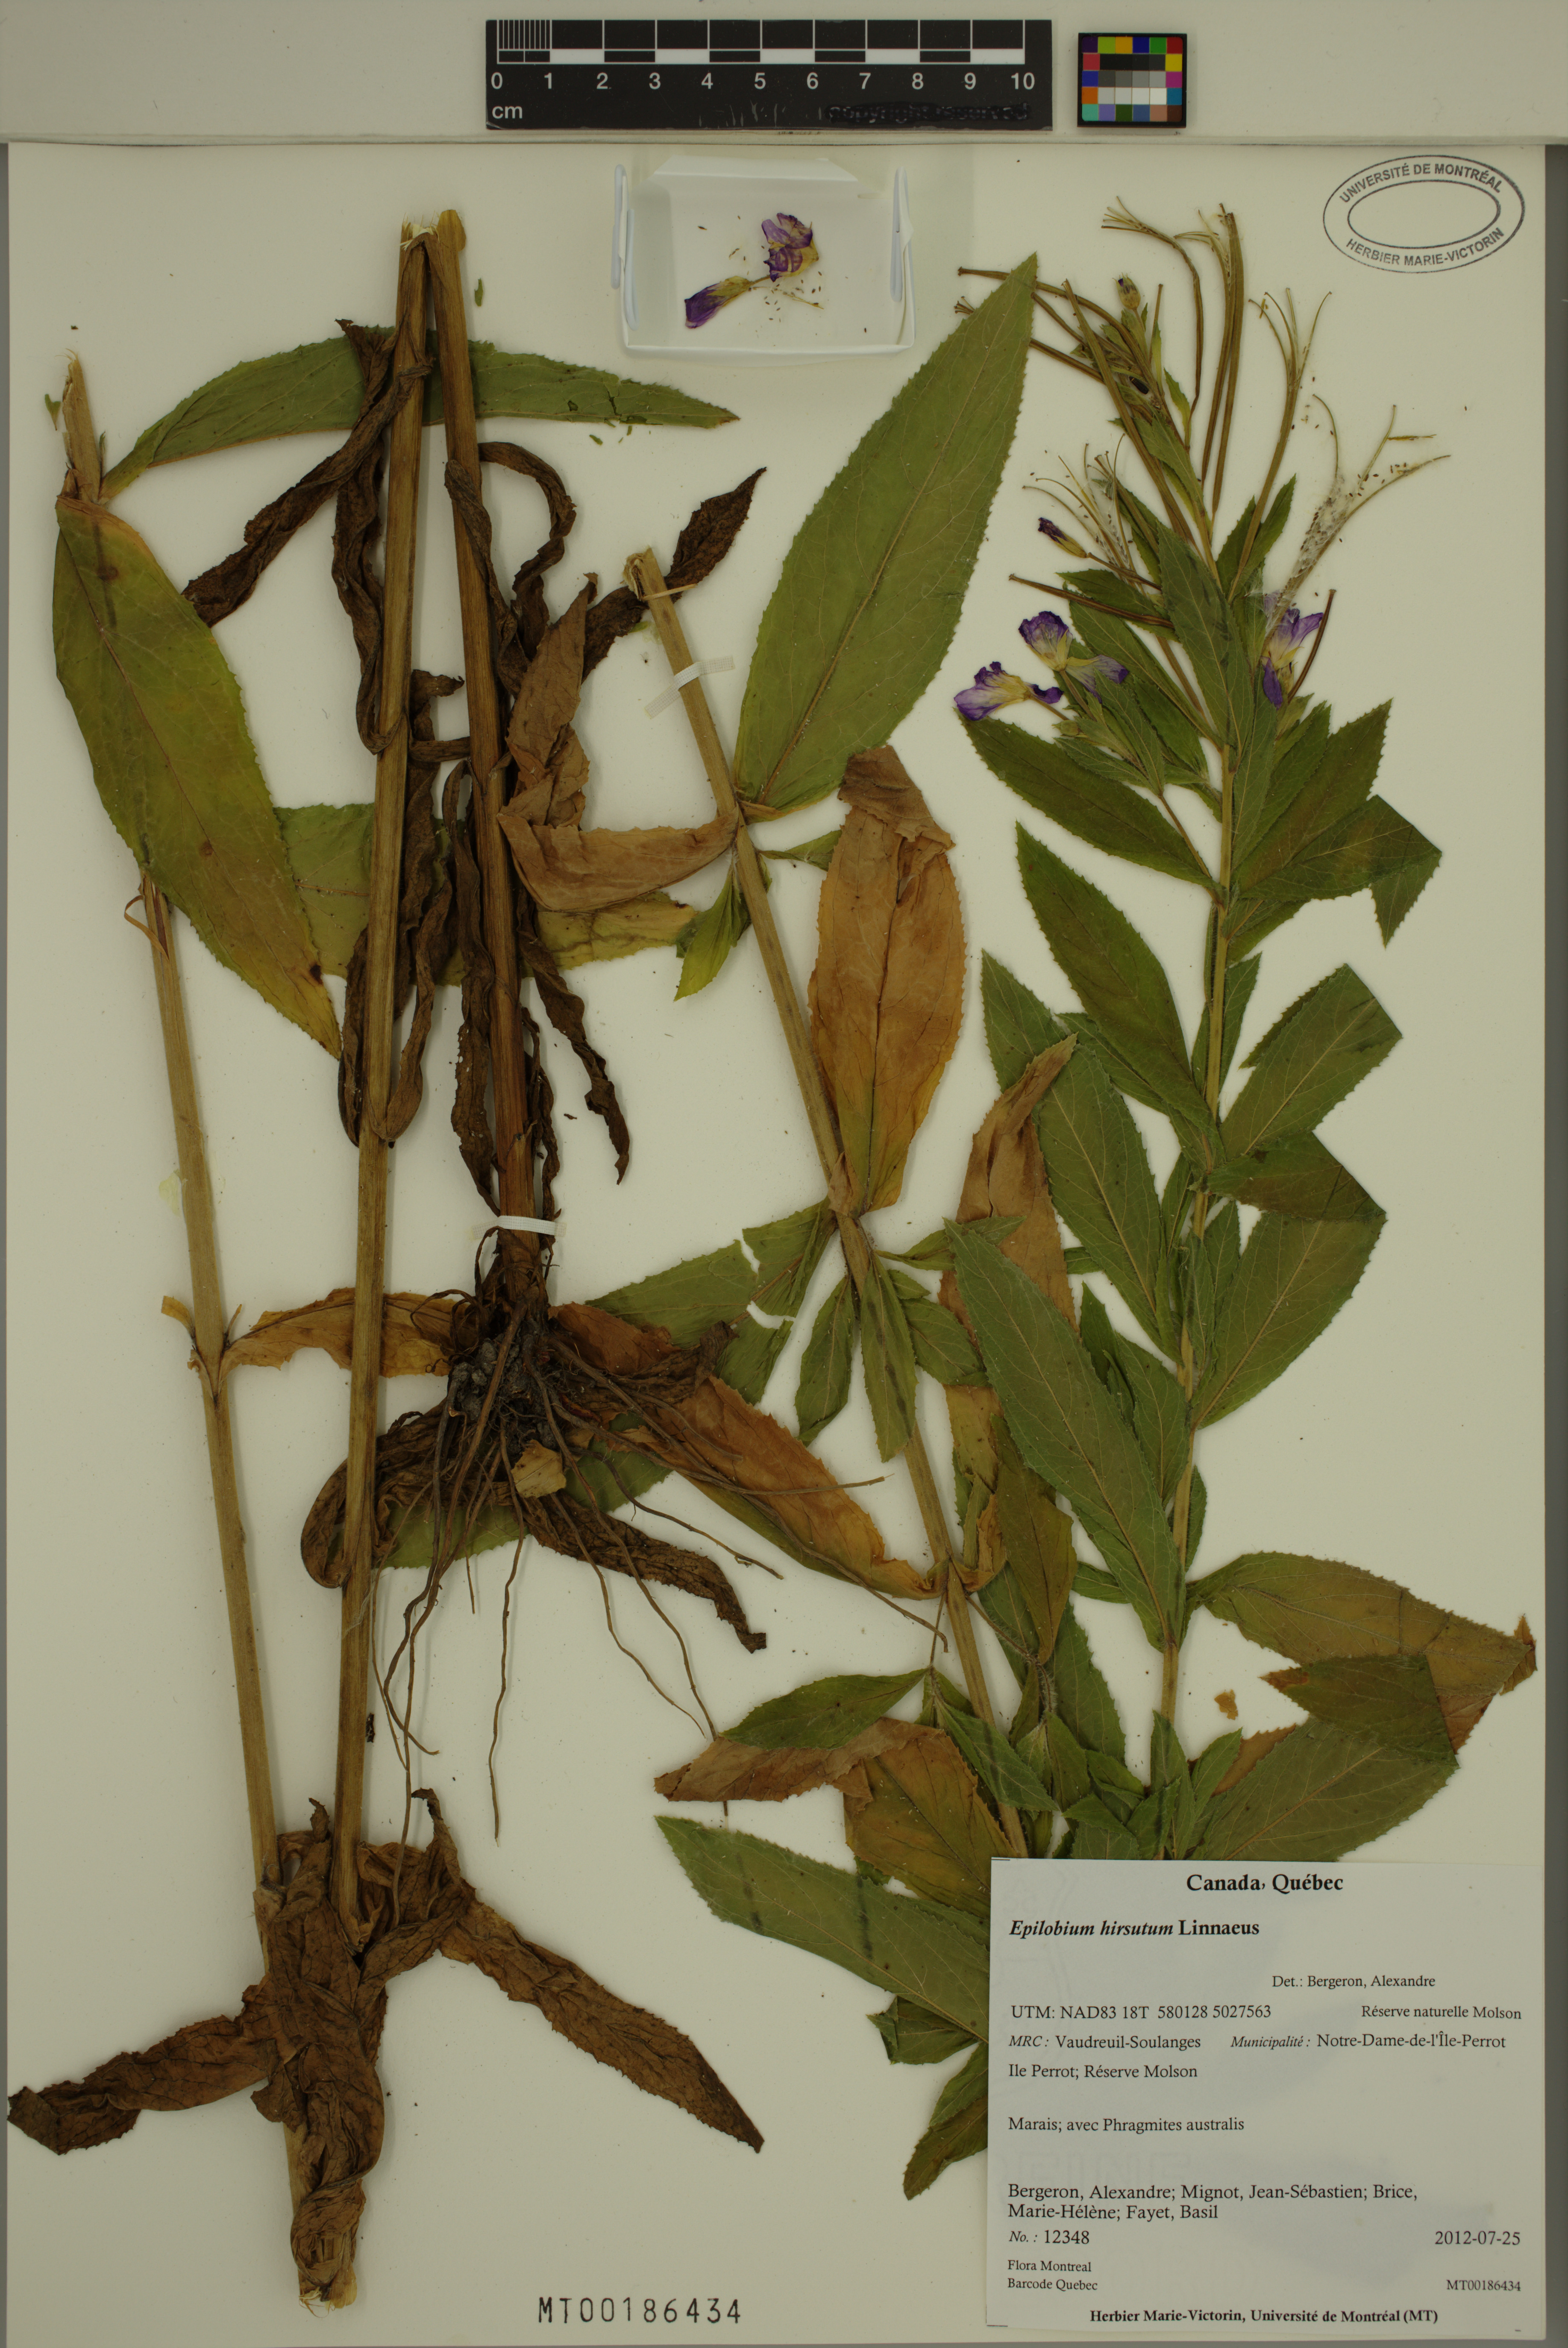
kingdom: Plantae
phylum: Tracheophyta
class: Magnoliopsida
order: Myrtales
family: Onagraceae
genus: Epilobium
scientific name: Epilobium hirsutum
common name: Great willowherb
